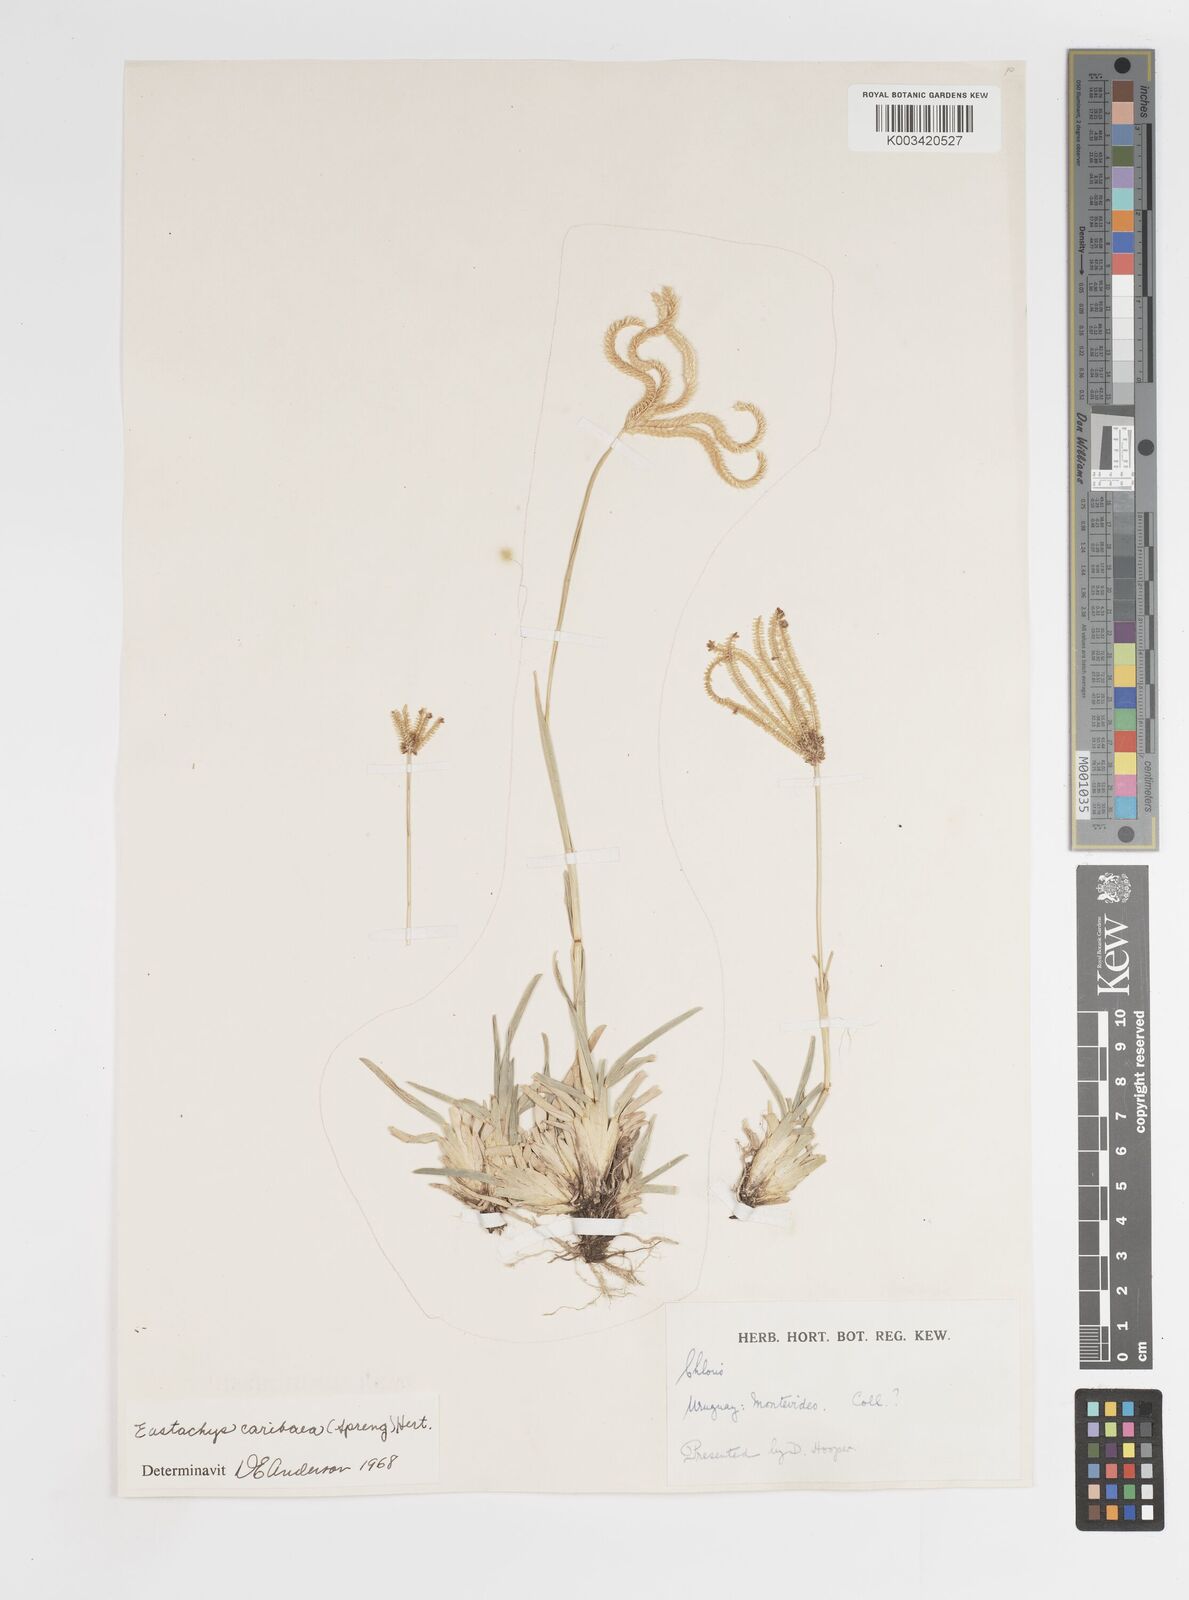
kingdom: Plantae
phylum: Tracheophyta
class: Liliopsida
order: Poales
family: Poaceae
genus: Eustachys
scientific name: Eustachys bahiensis
